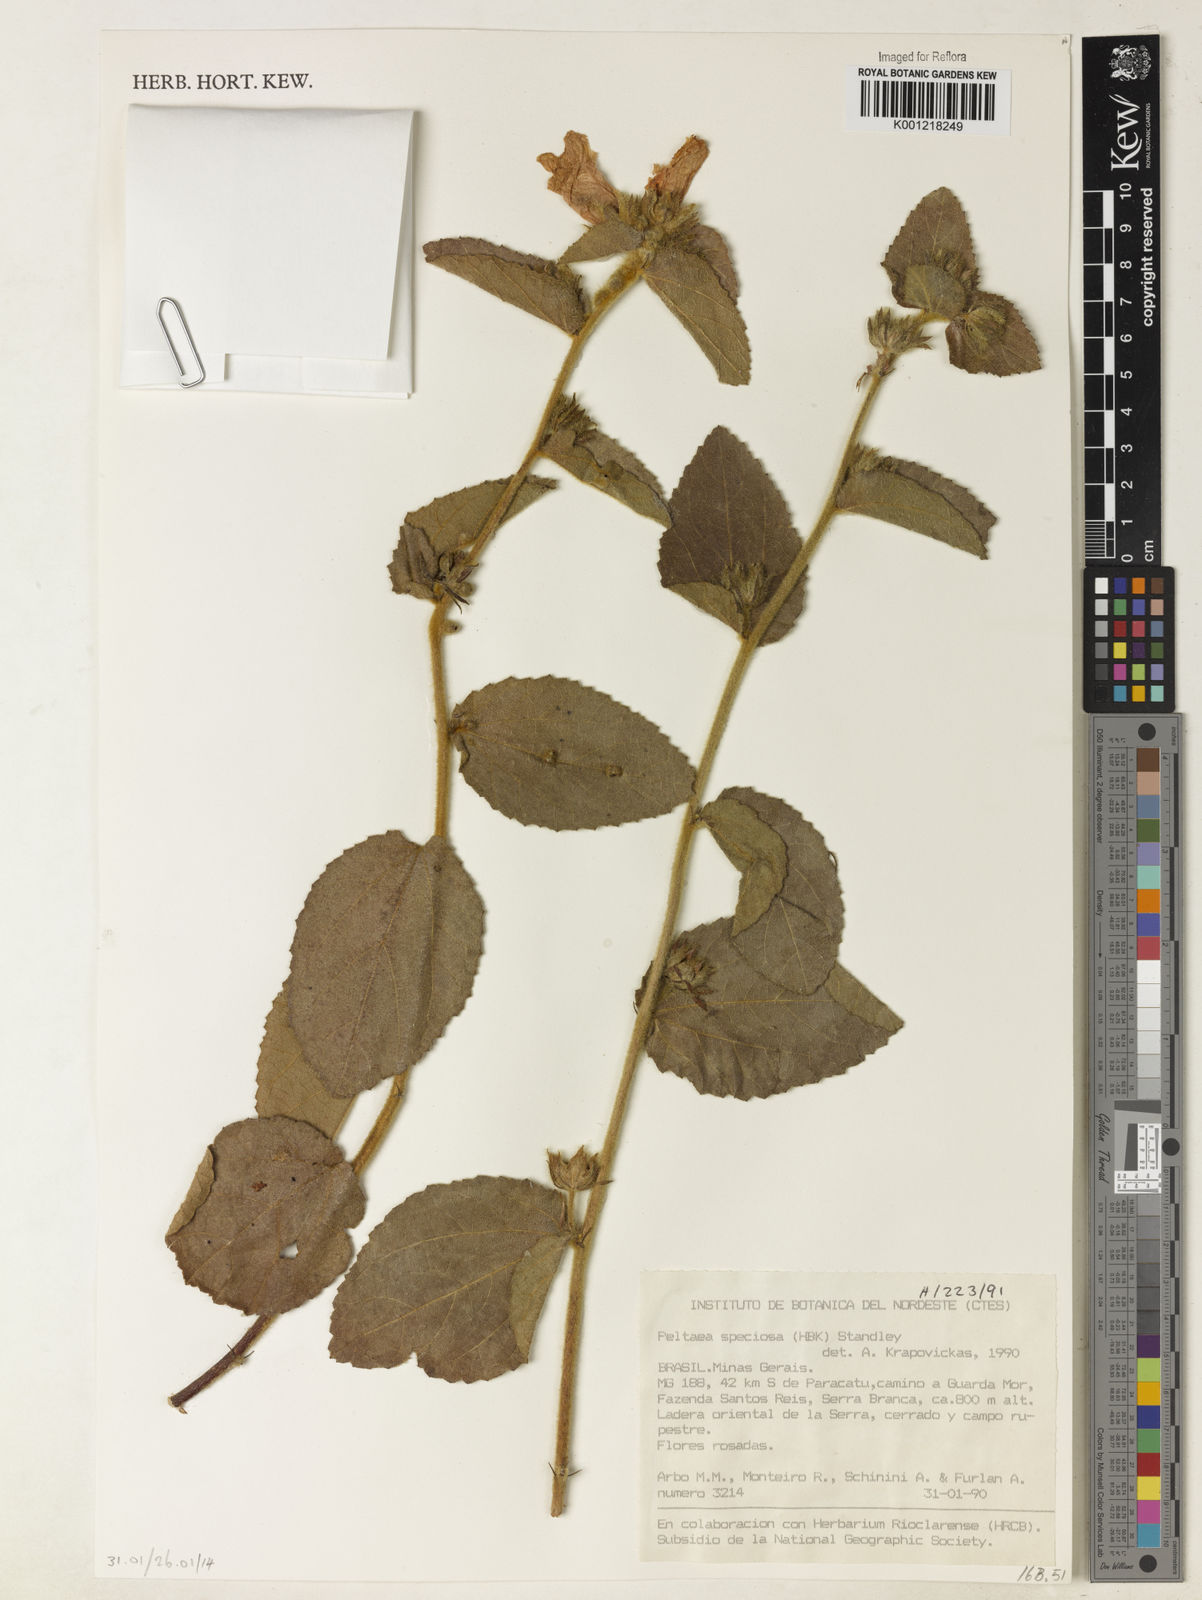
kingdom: Plantae
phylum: Tracheophyta
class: Magnoliopsida
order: Malvales
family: Malvaceae
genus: Peltaea
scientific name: Peltaea speciosa
